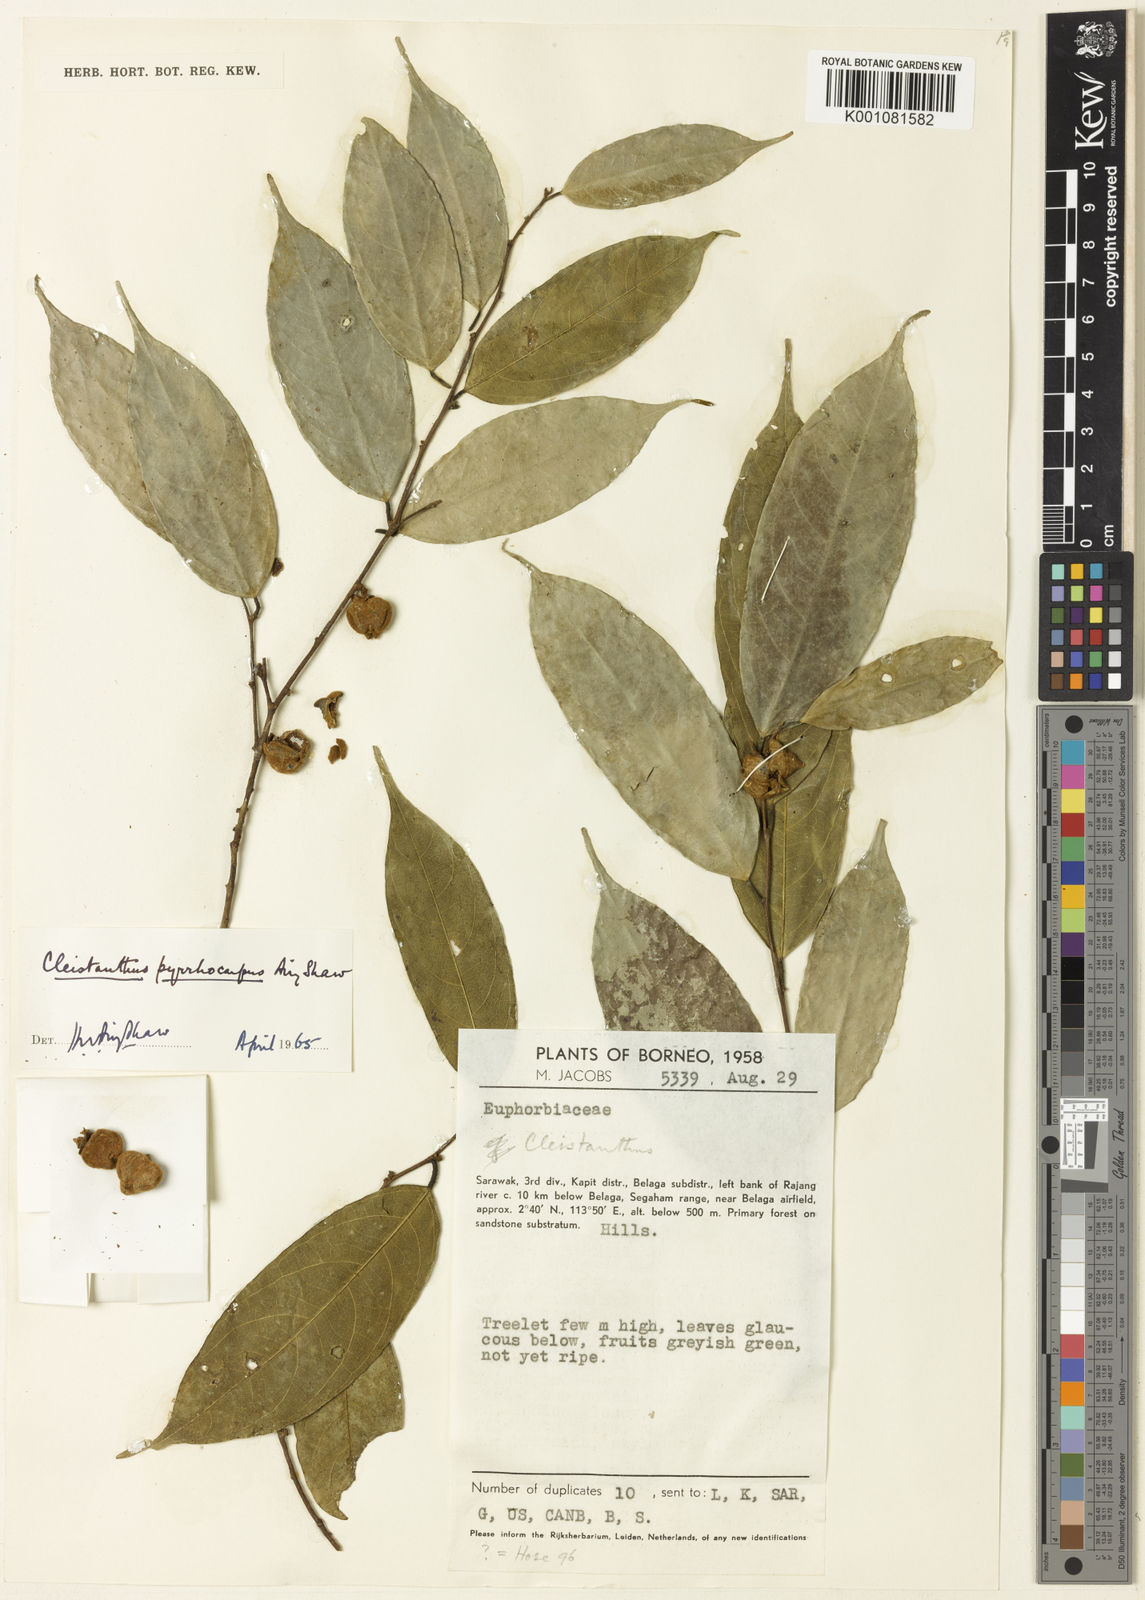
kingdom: Plantae
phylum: Tracheophyta
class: Magnoliopsida
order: Malpighiales
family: Phyllanthaceae
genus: Cleistanthus
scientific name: Cleistanthus pyrrhocarpus
